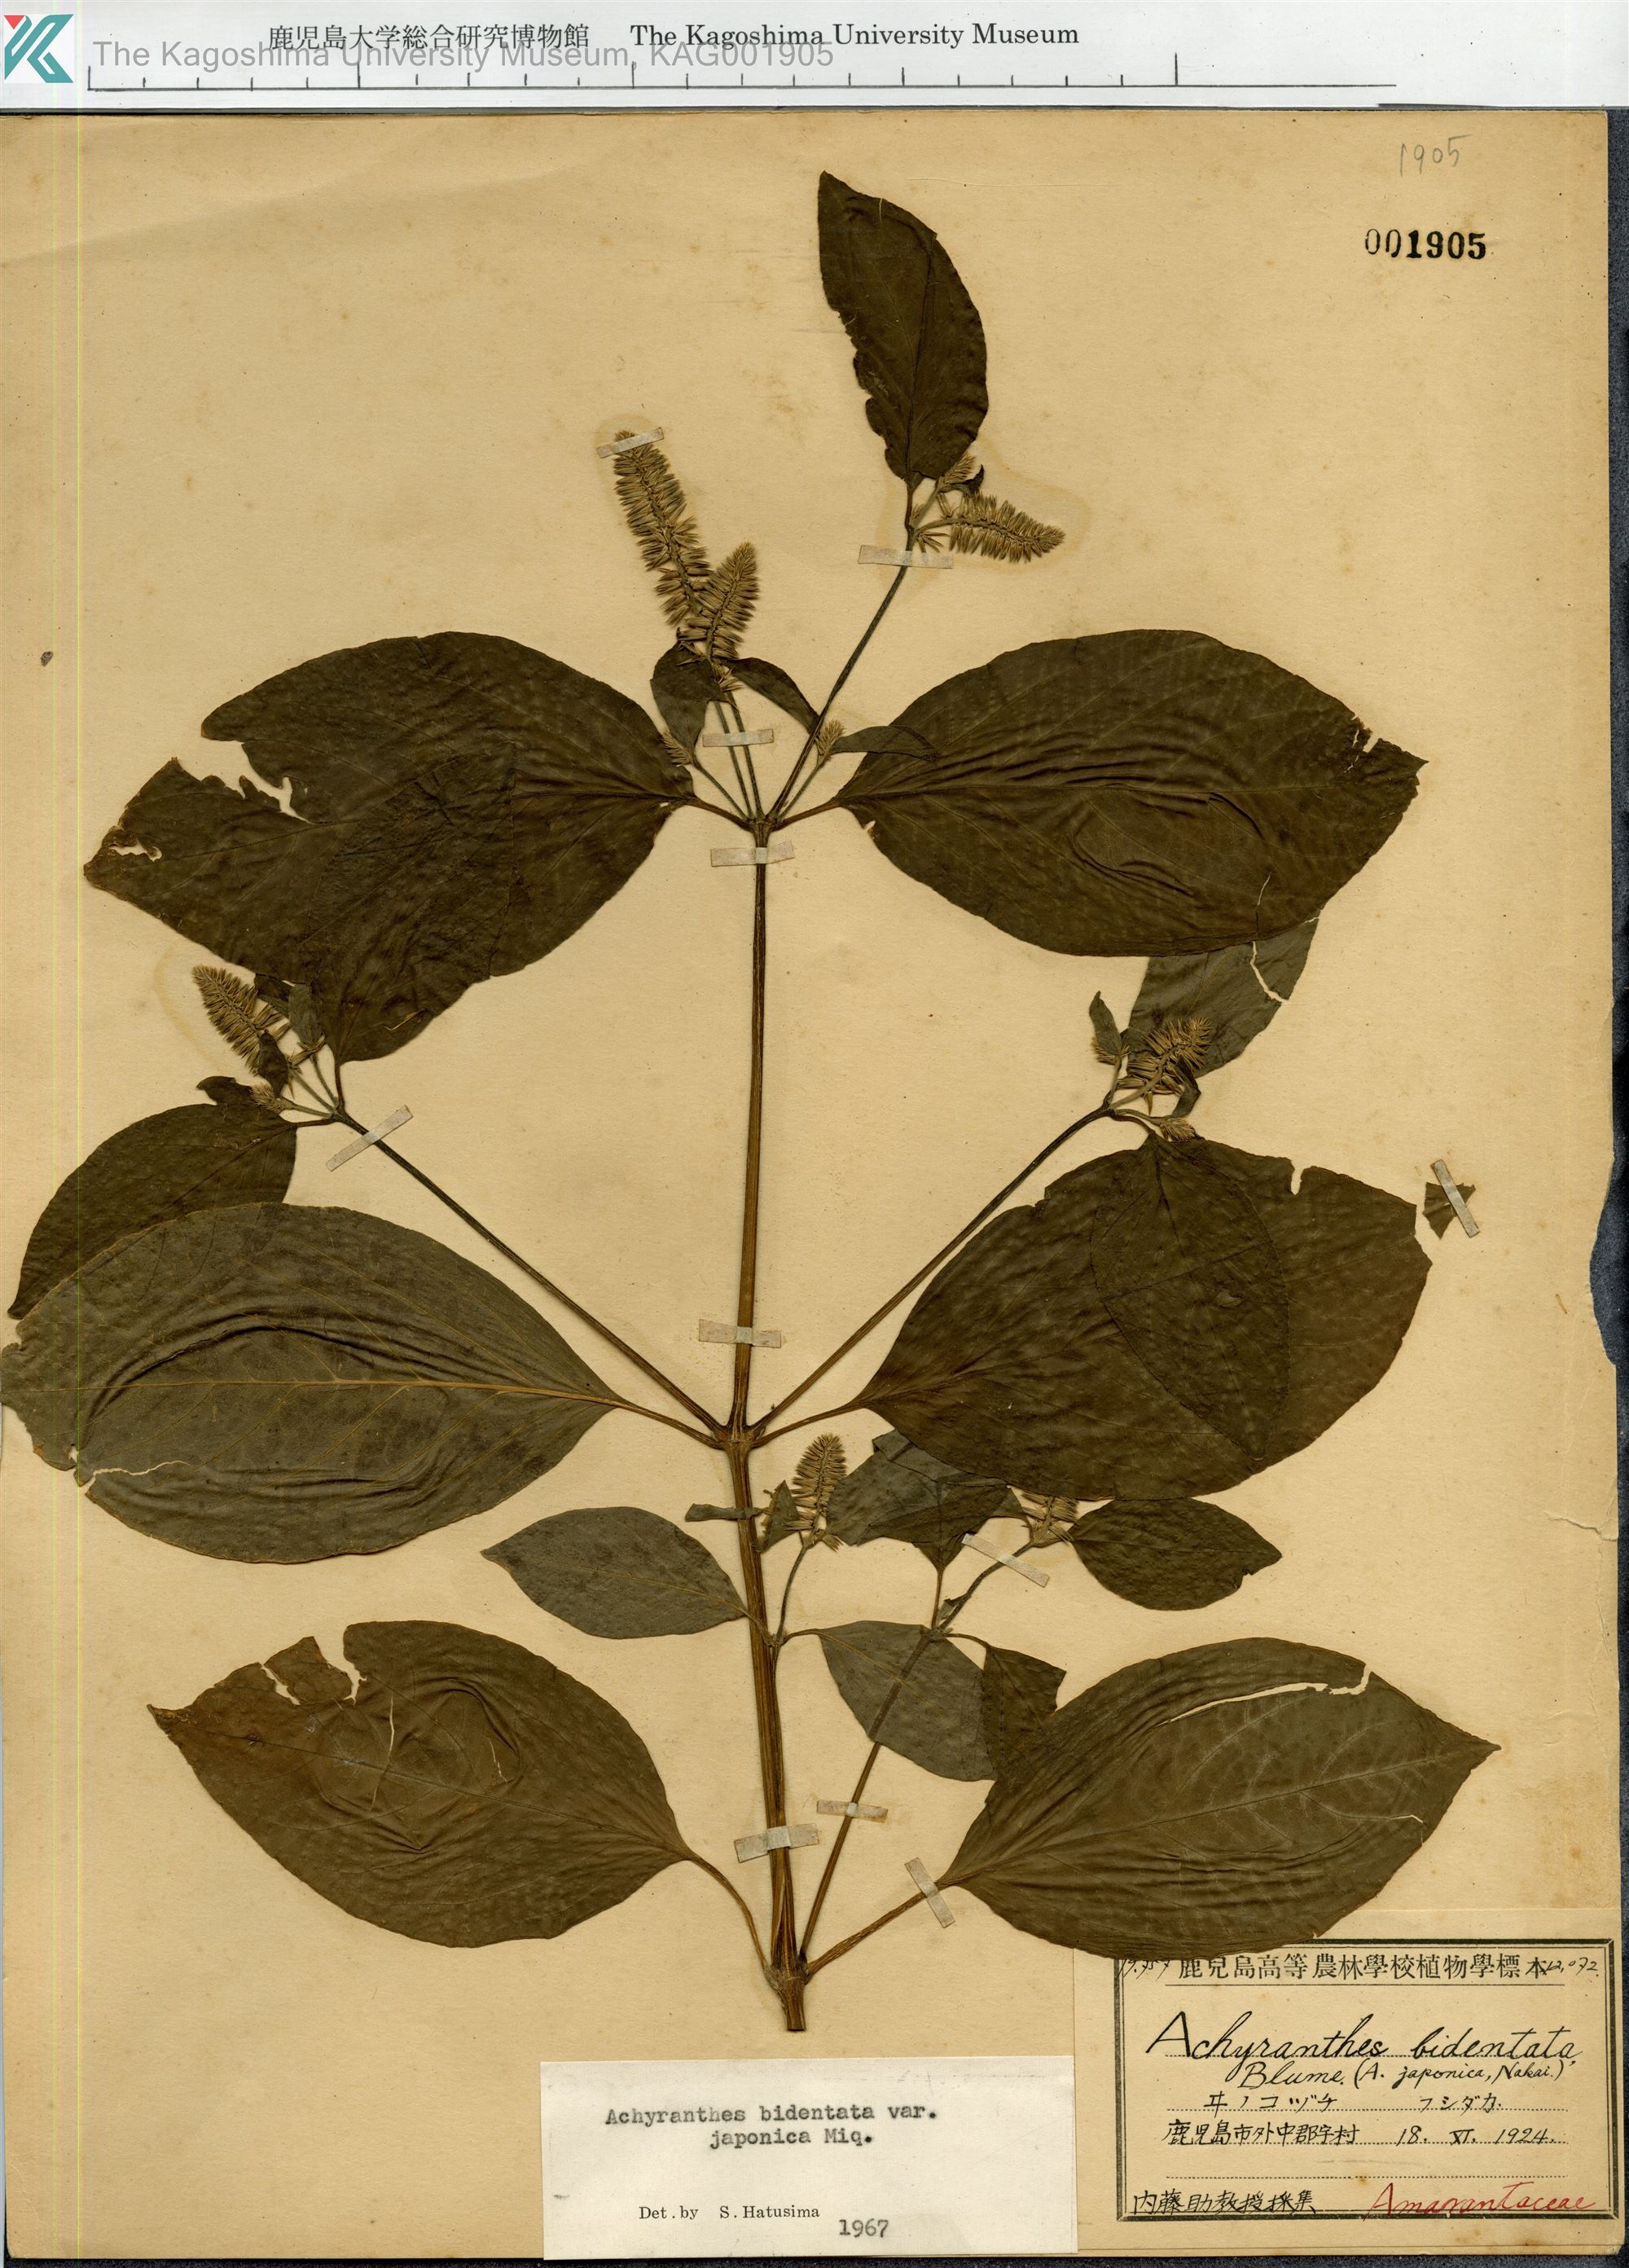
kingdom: Plantae
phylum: Tracheophyta
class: Magnoliopsida
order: Caryophyllales
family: Amaranthaceae
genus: Achyranthes
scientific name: Achyranthes bidentata
